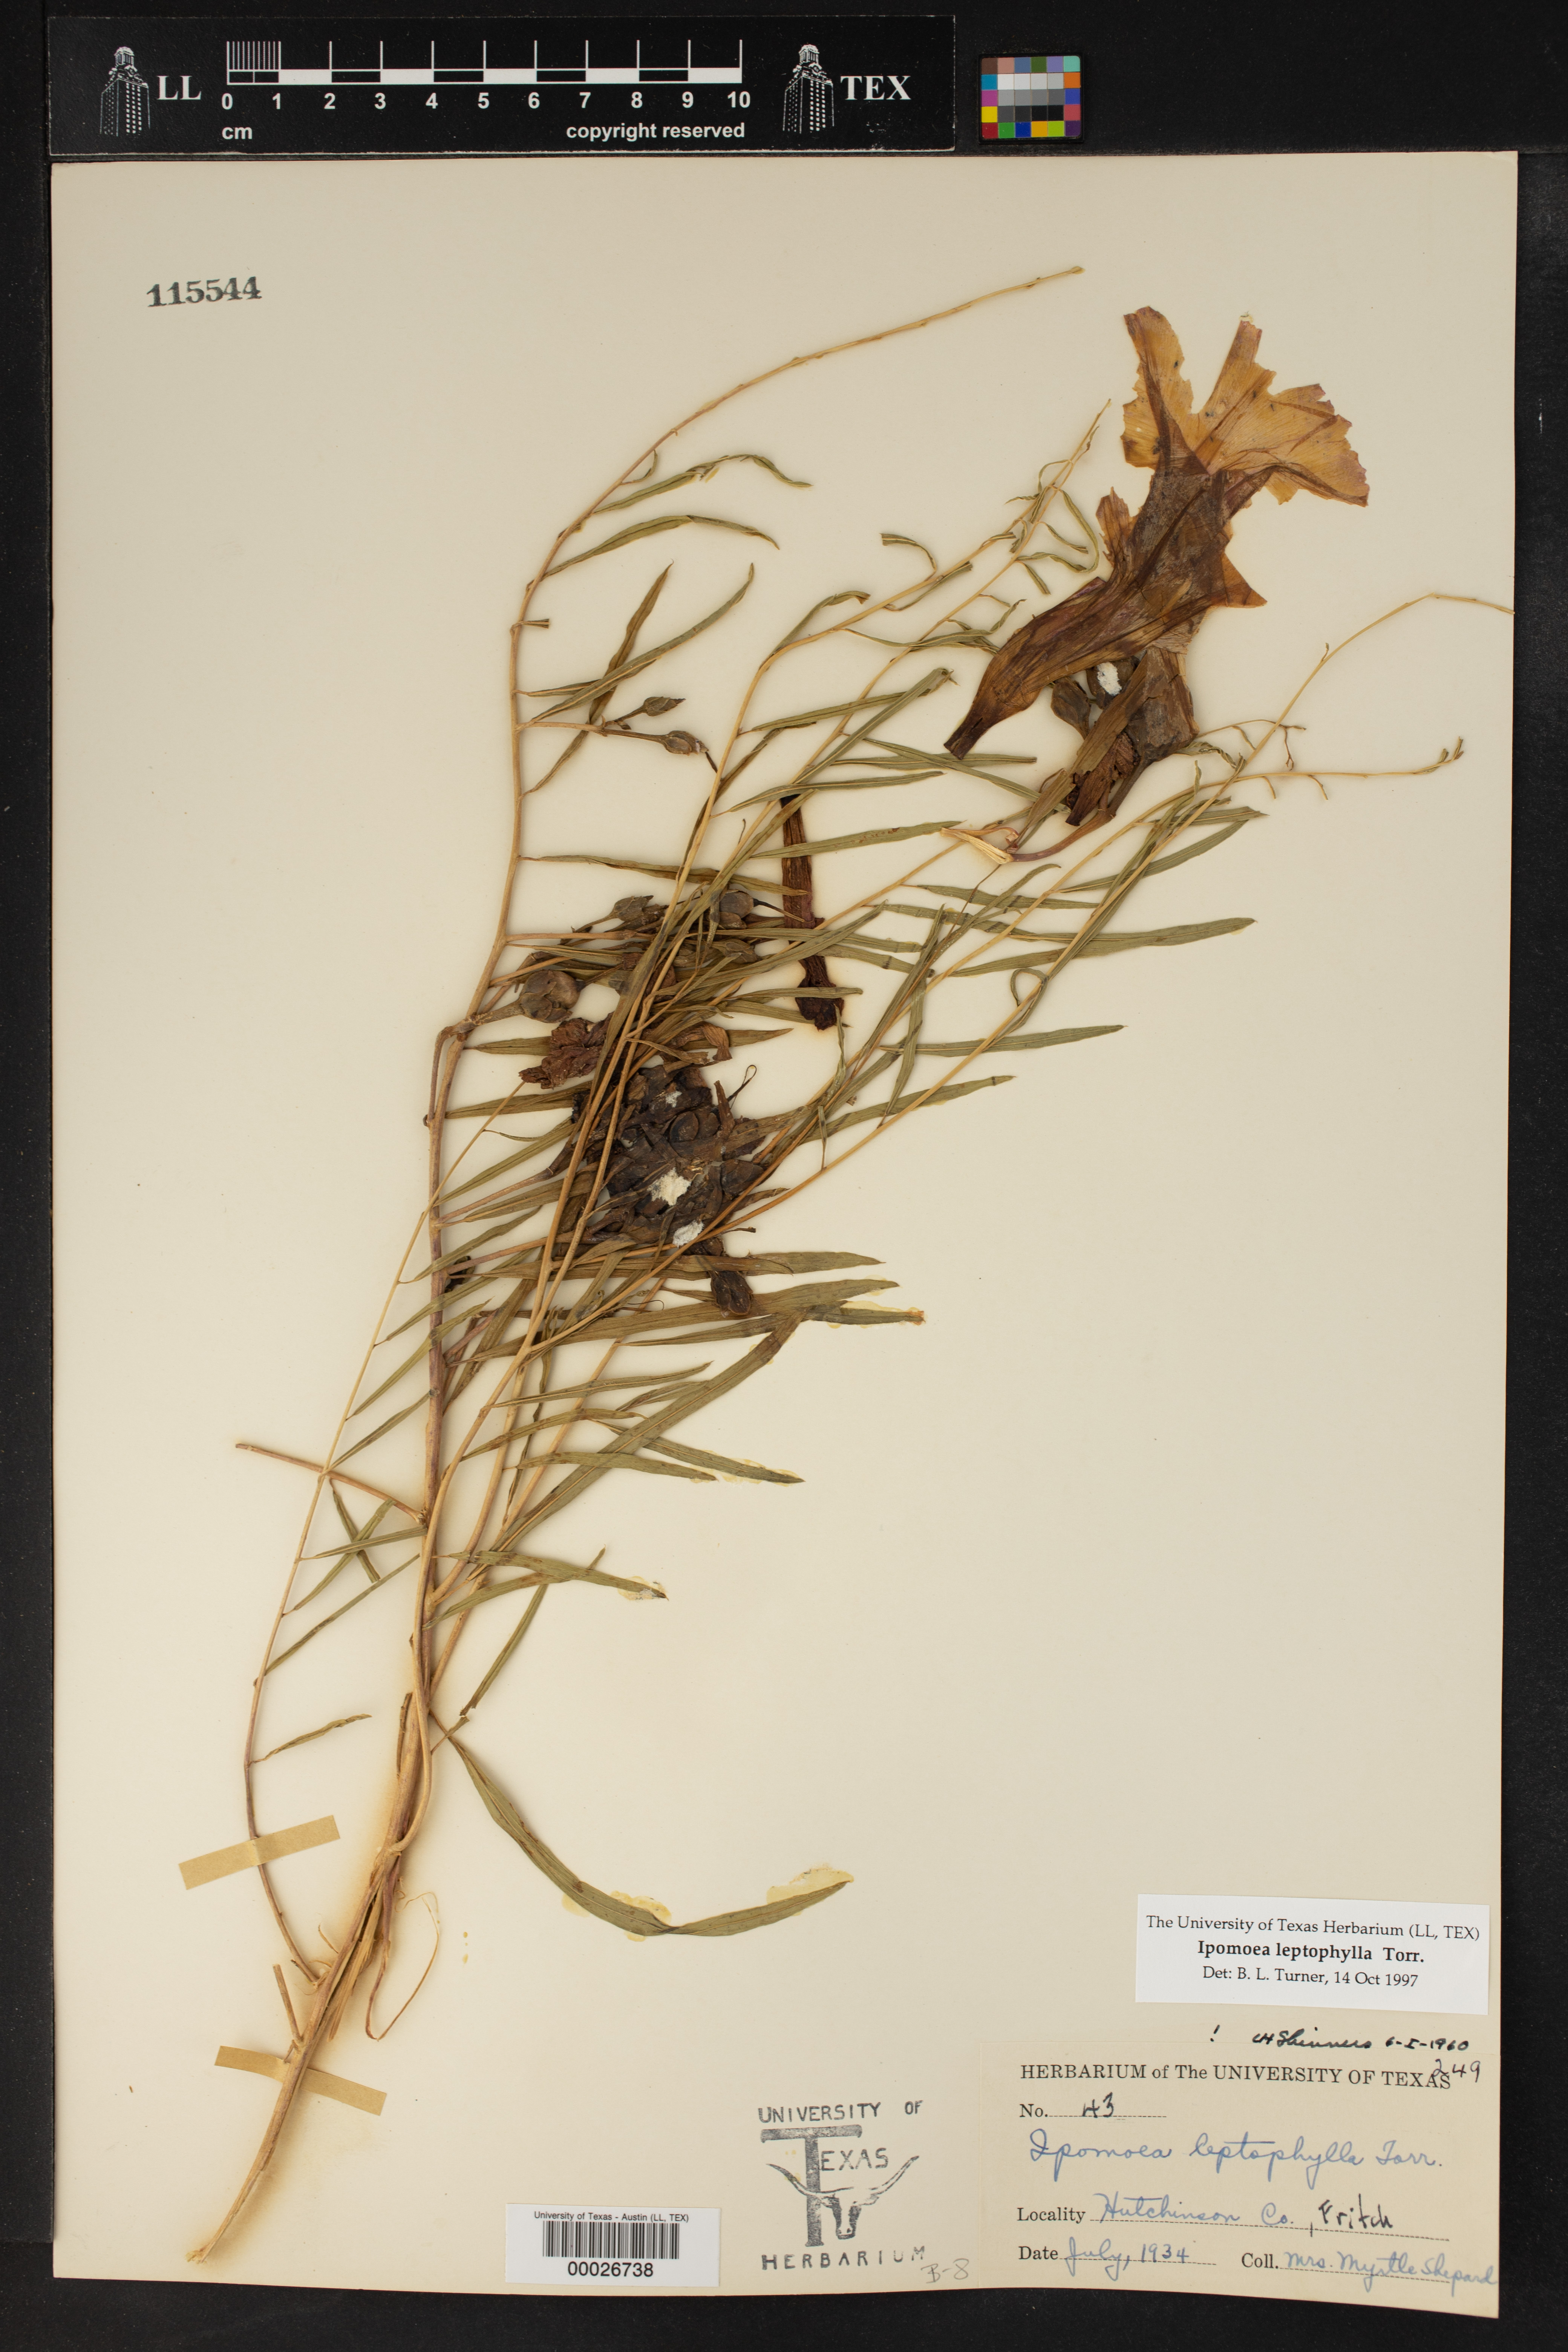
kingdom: Plantae
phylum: Tracheophyta
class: Magnoliopsida
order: Solanales
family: Convolvulaceae
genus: Ipomoea
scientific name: Ipomoea leptophylla
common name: Bush moonflower
